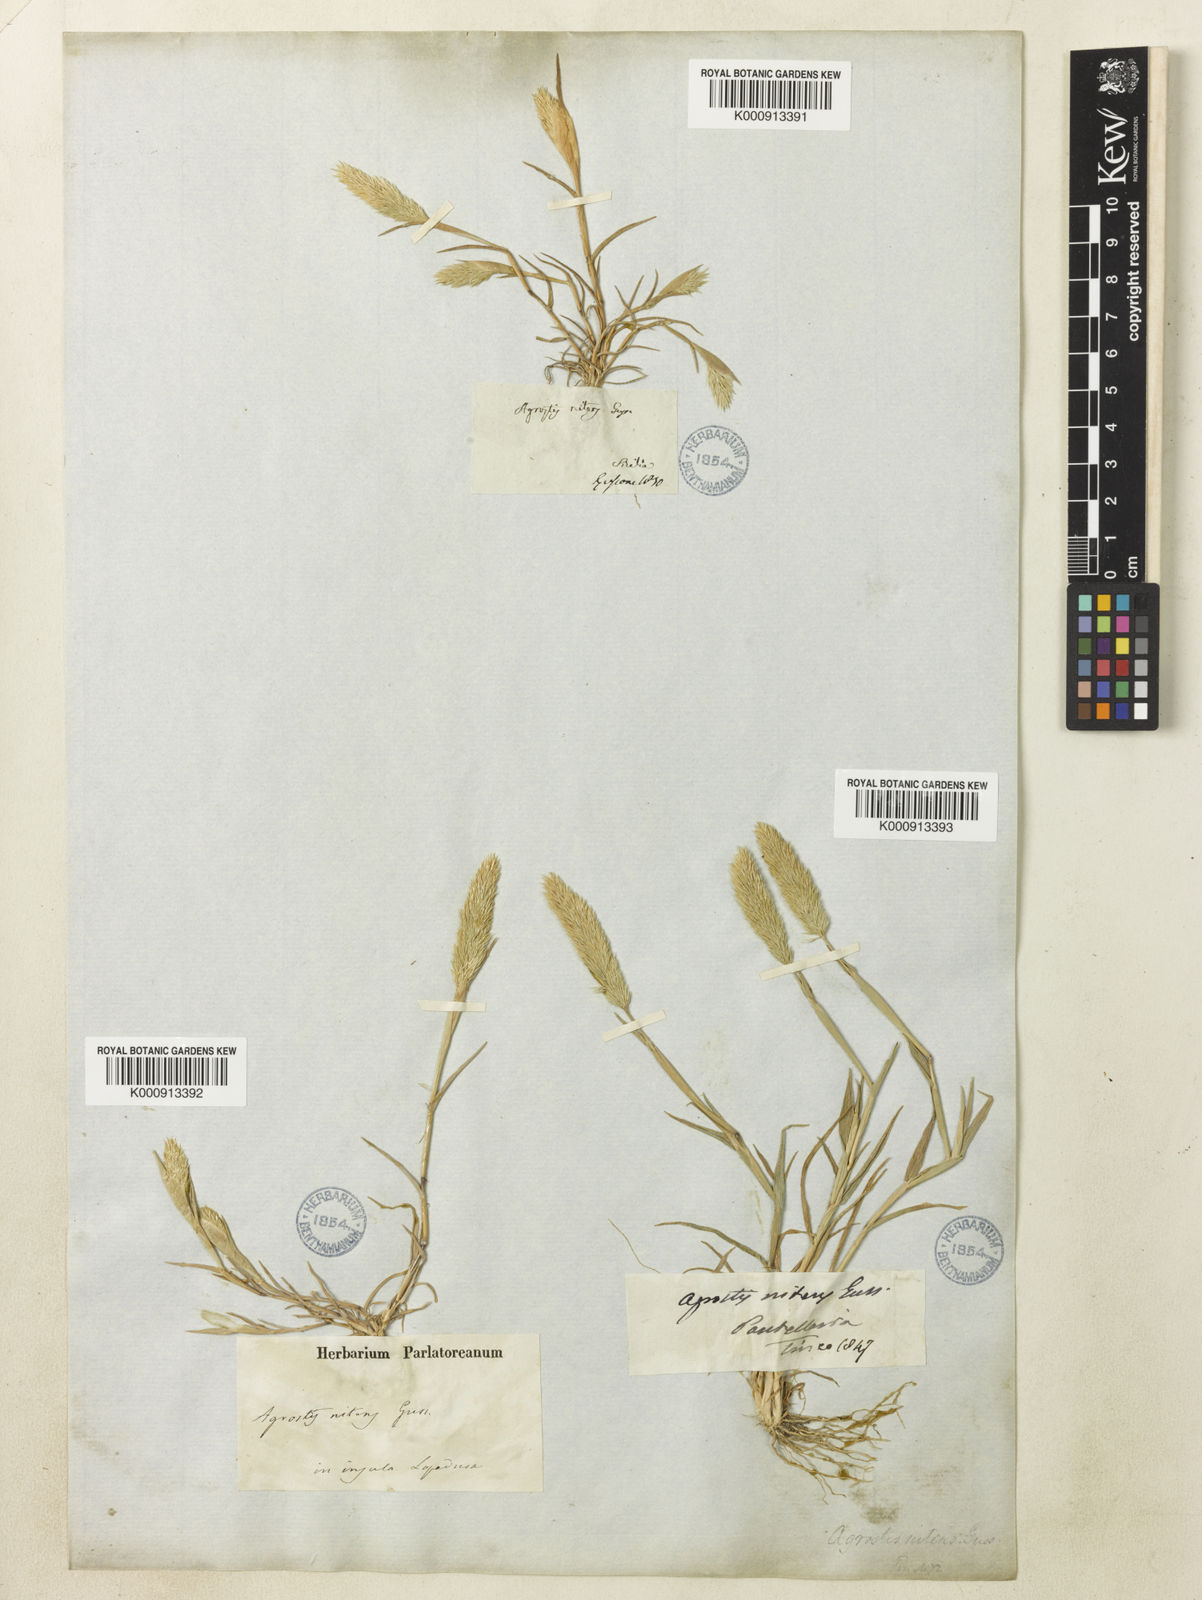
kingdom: Plantae
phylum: Tracheophyta
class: Liliopsida
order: Poales
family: Poaceae
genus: Triplachne
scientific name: Triplachne nitens
